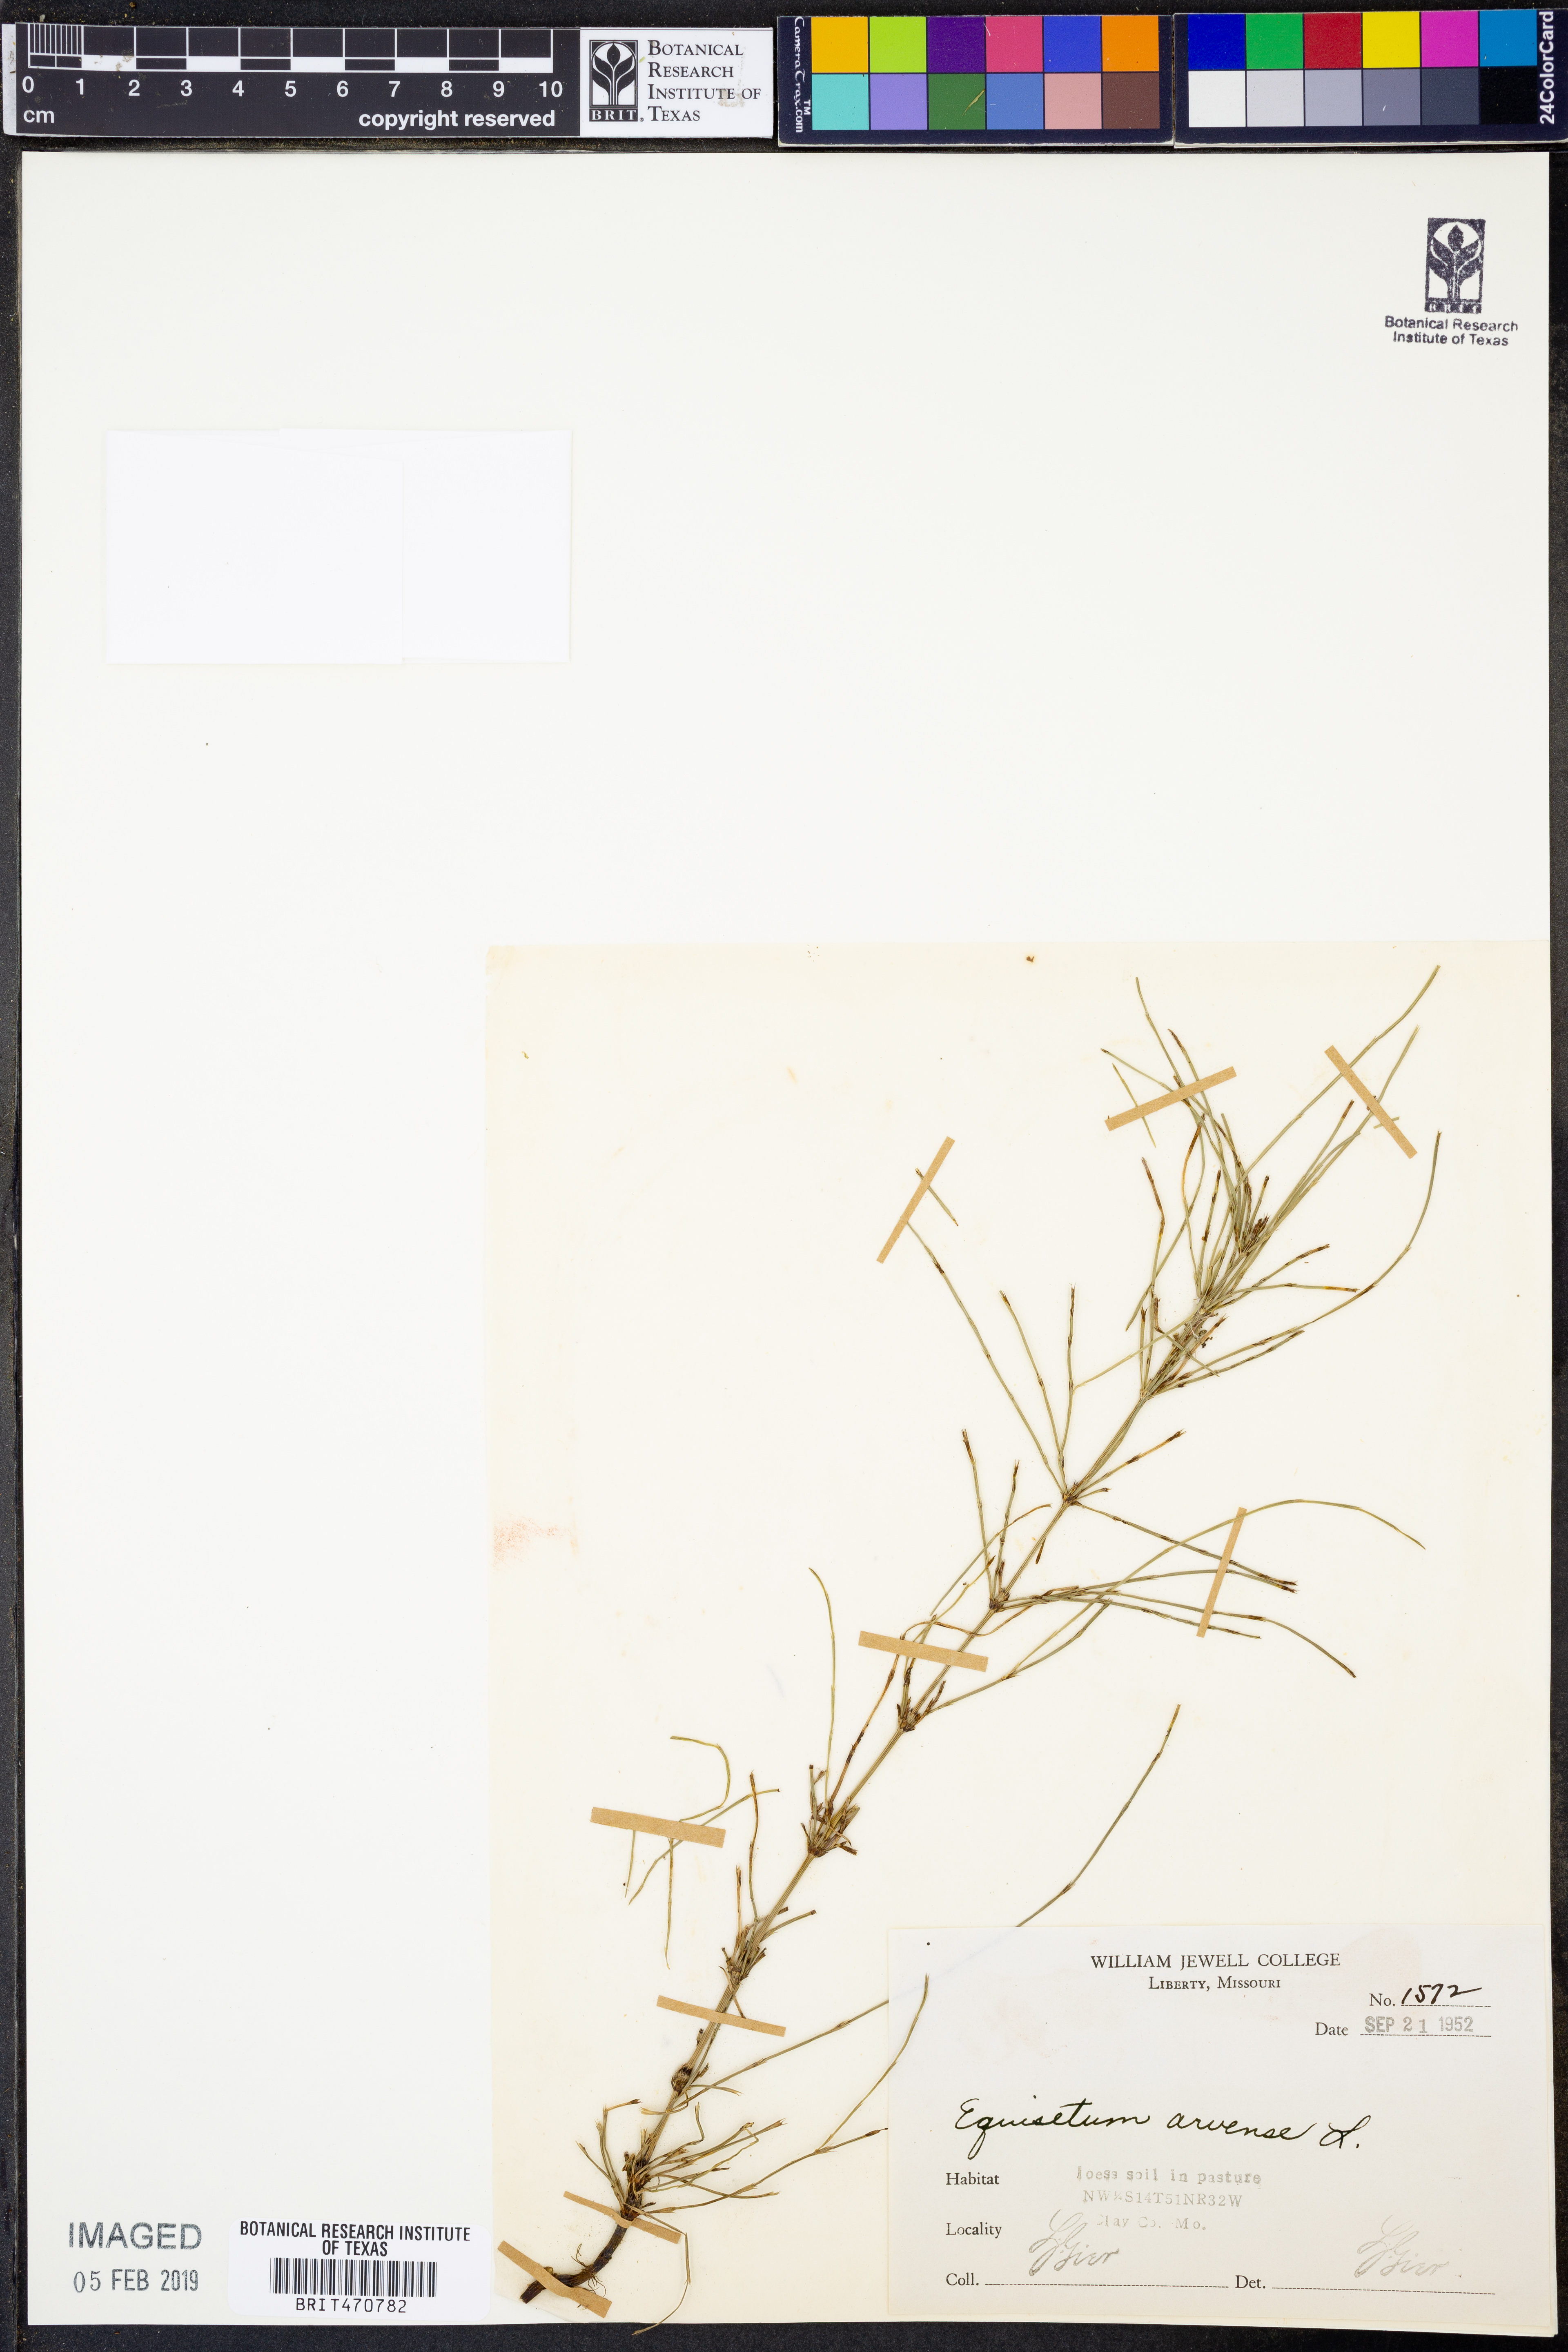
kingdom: Plantae
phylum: Tracheophyta
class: Polypodiopsida
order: Equisetales
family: Equisetaceae
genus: Equisetum
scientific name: Equisetum arvense
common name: Field horsetail
